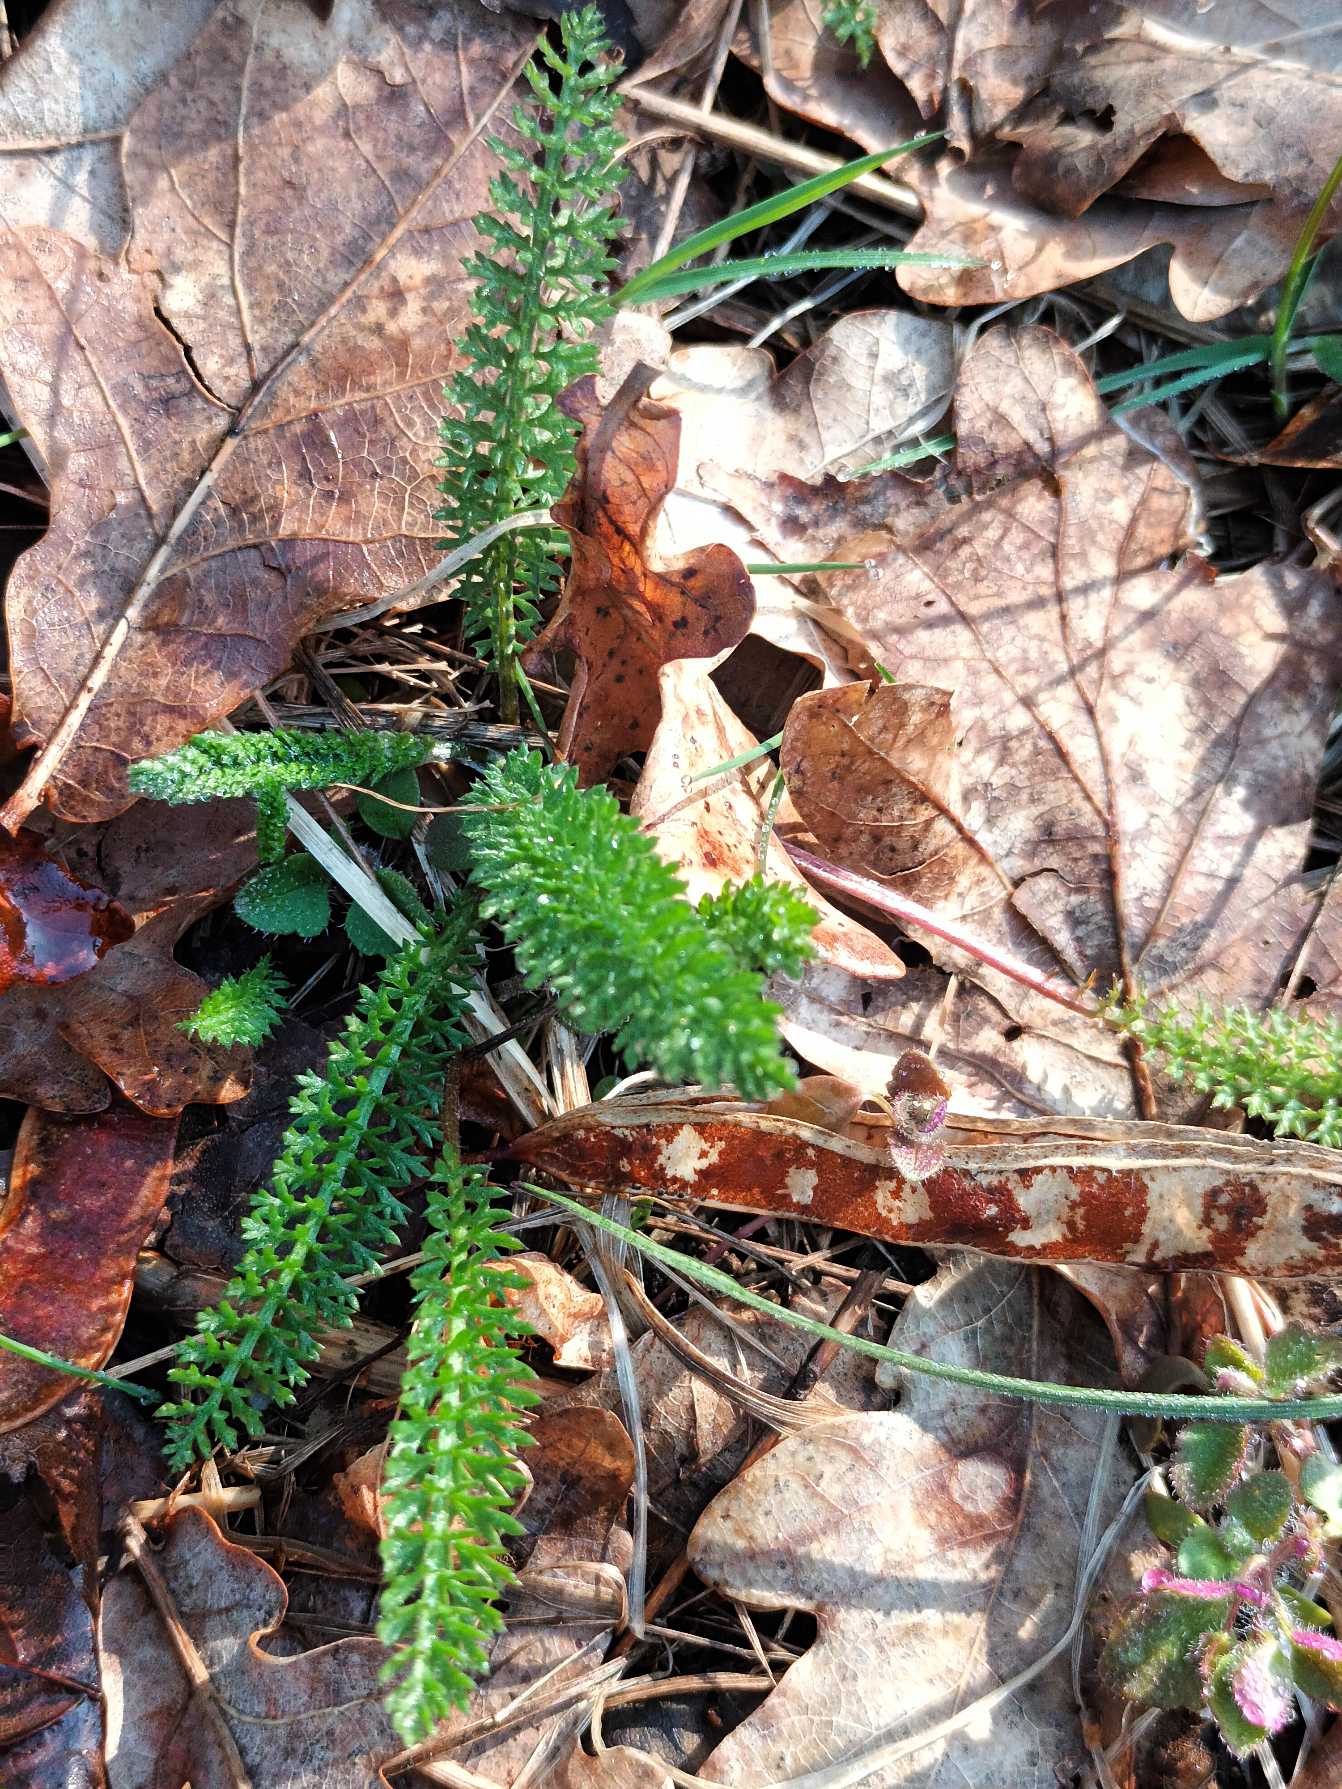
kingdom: Plantae
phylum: Tracheophyta
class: Magnoliopsida
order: Asterales
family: Asteraceae
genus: Achillea
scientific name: Achillea millefolium
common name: Almindelig røllike
